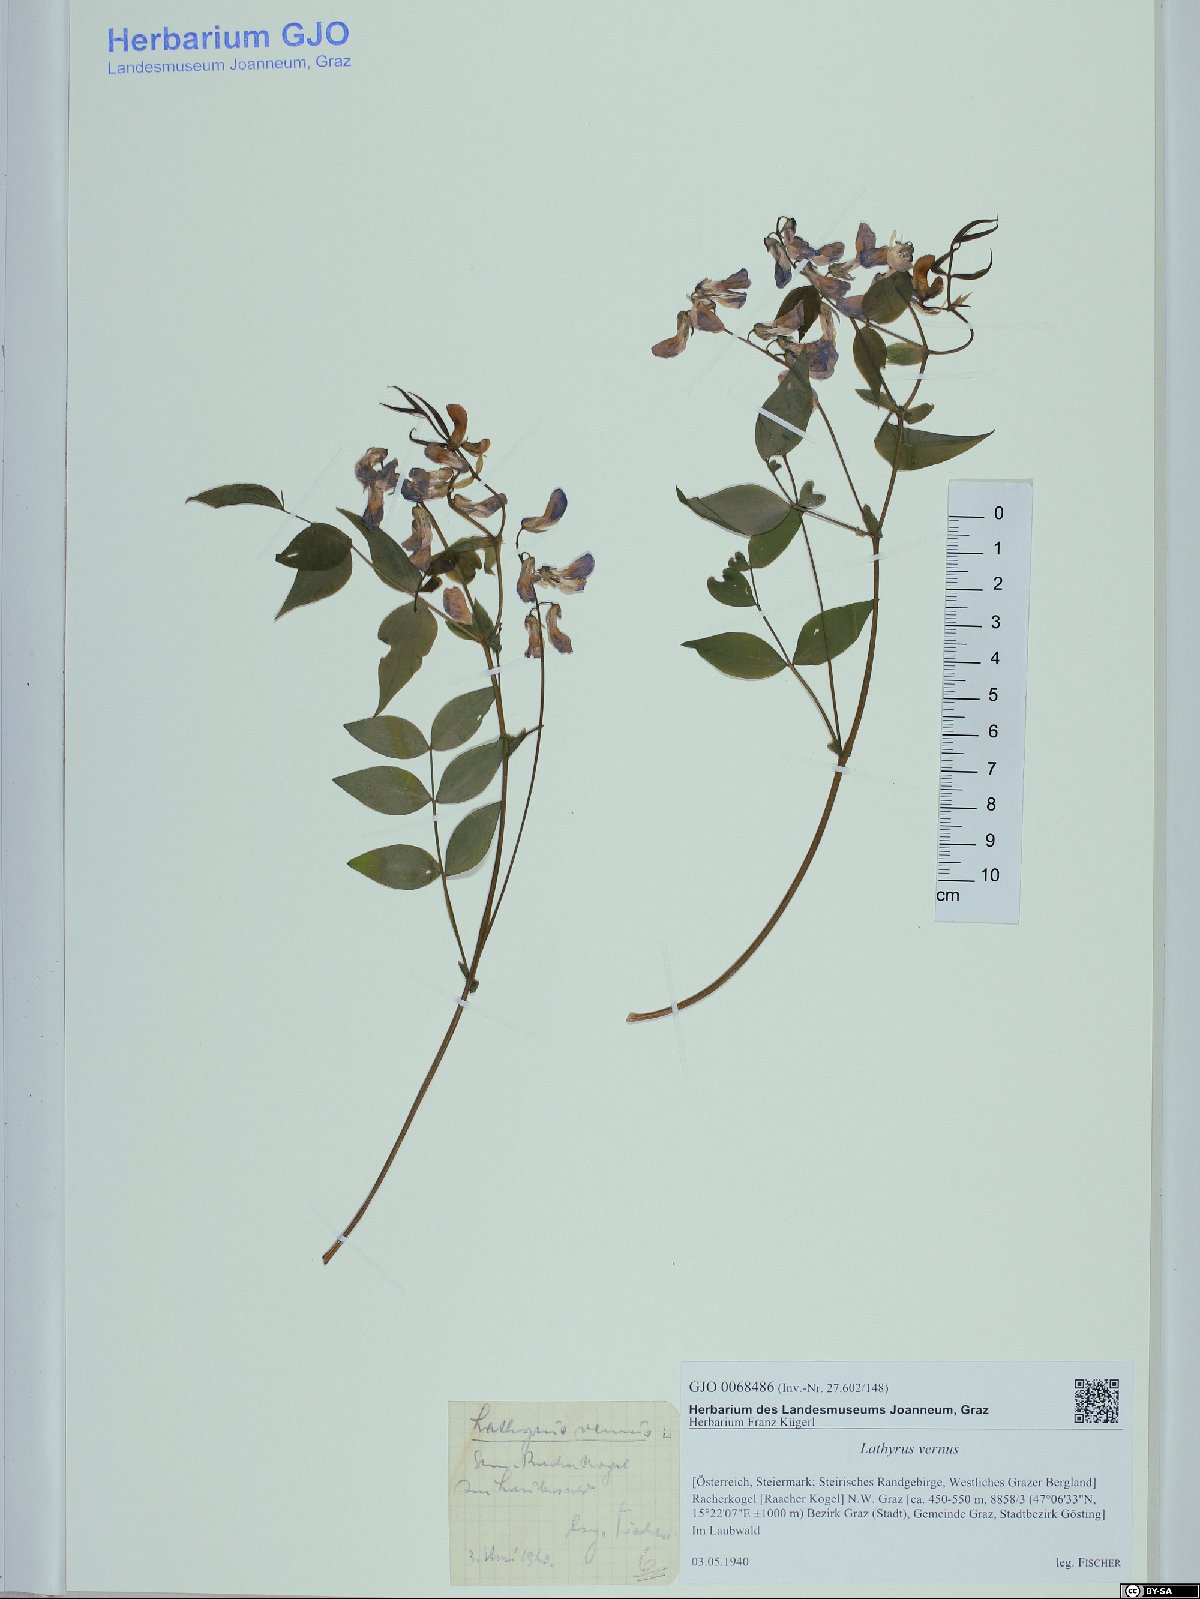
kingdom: Plantae
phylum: Tracheophyta
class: Magnoliopsida
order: Fabales
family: Fabaceae
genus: Lathyrus
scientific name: Lathyrus vernus
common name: Spring pea
